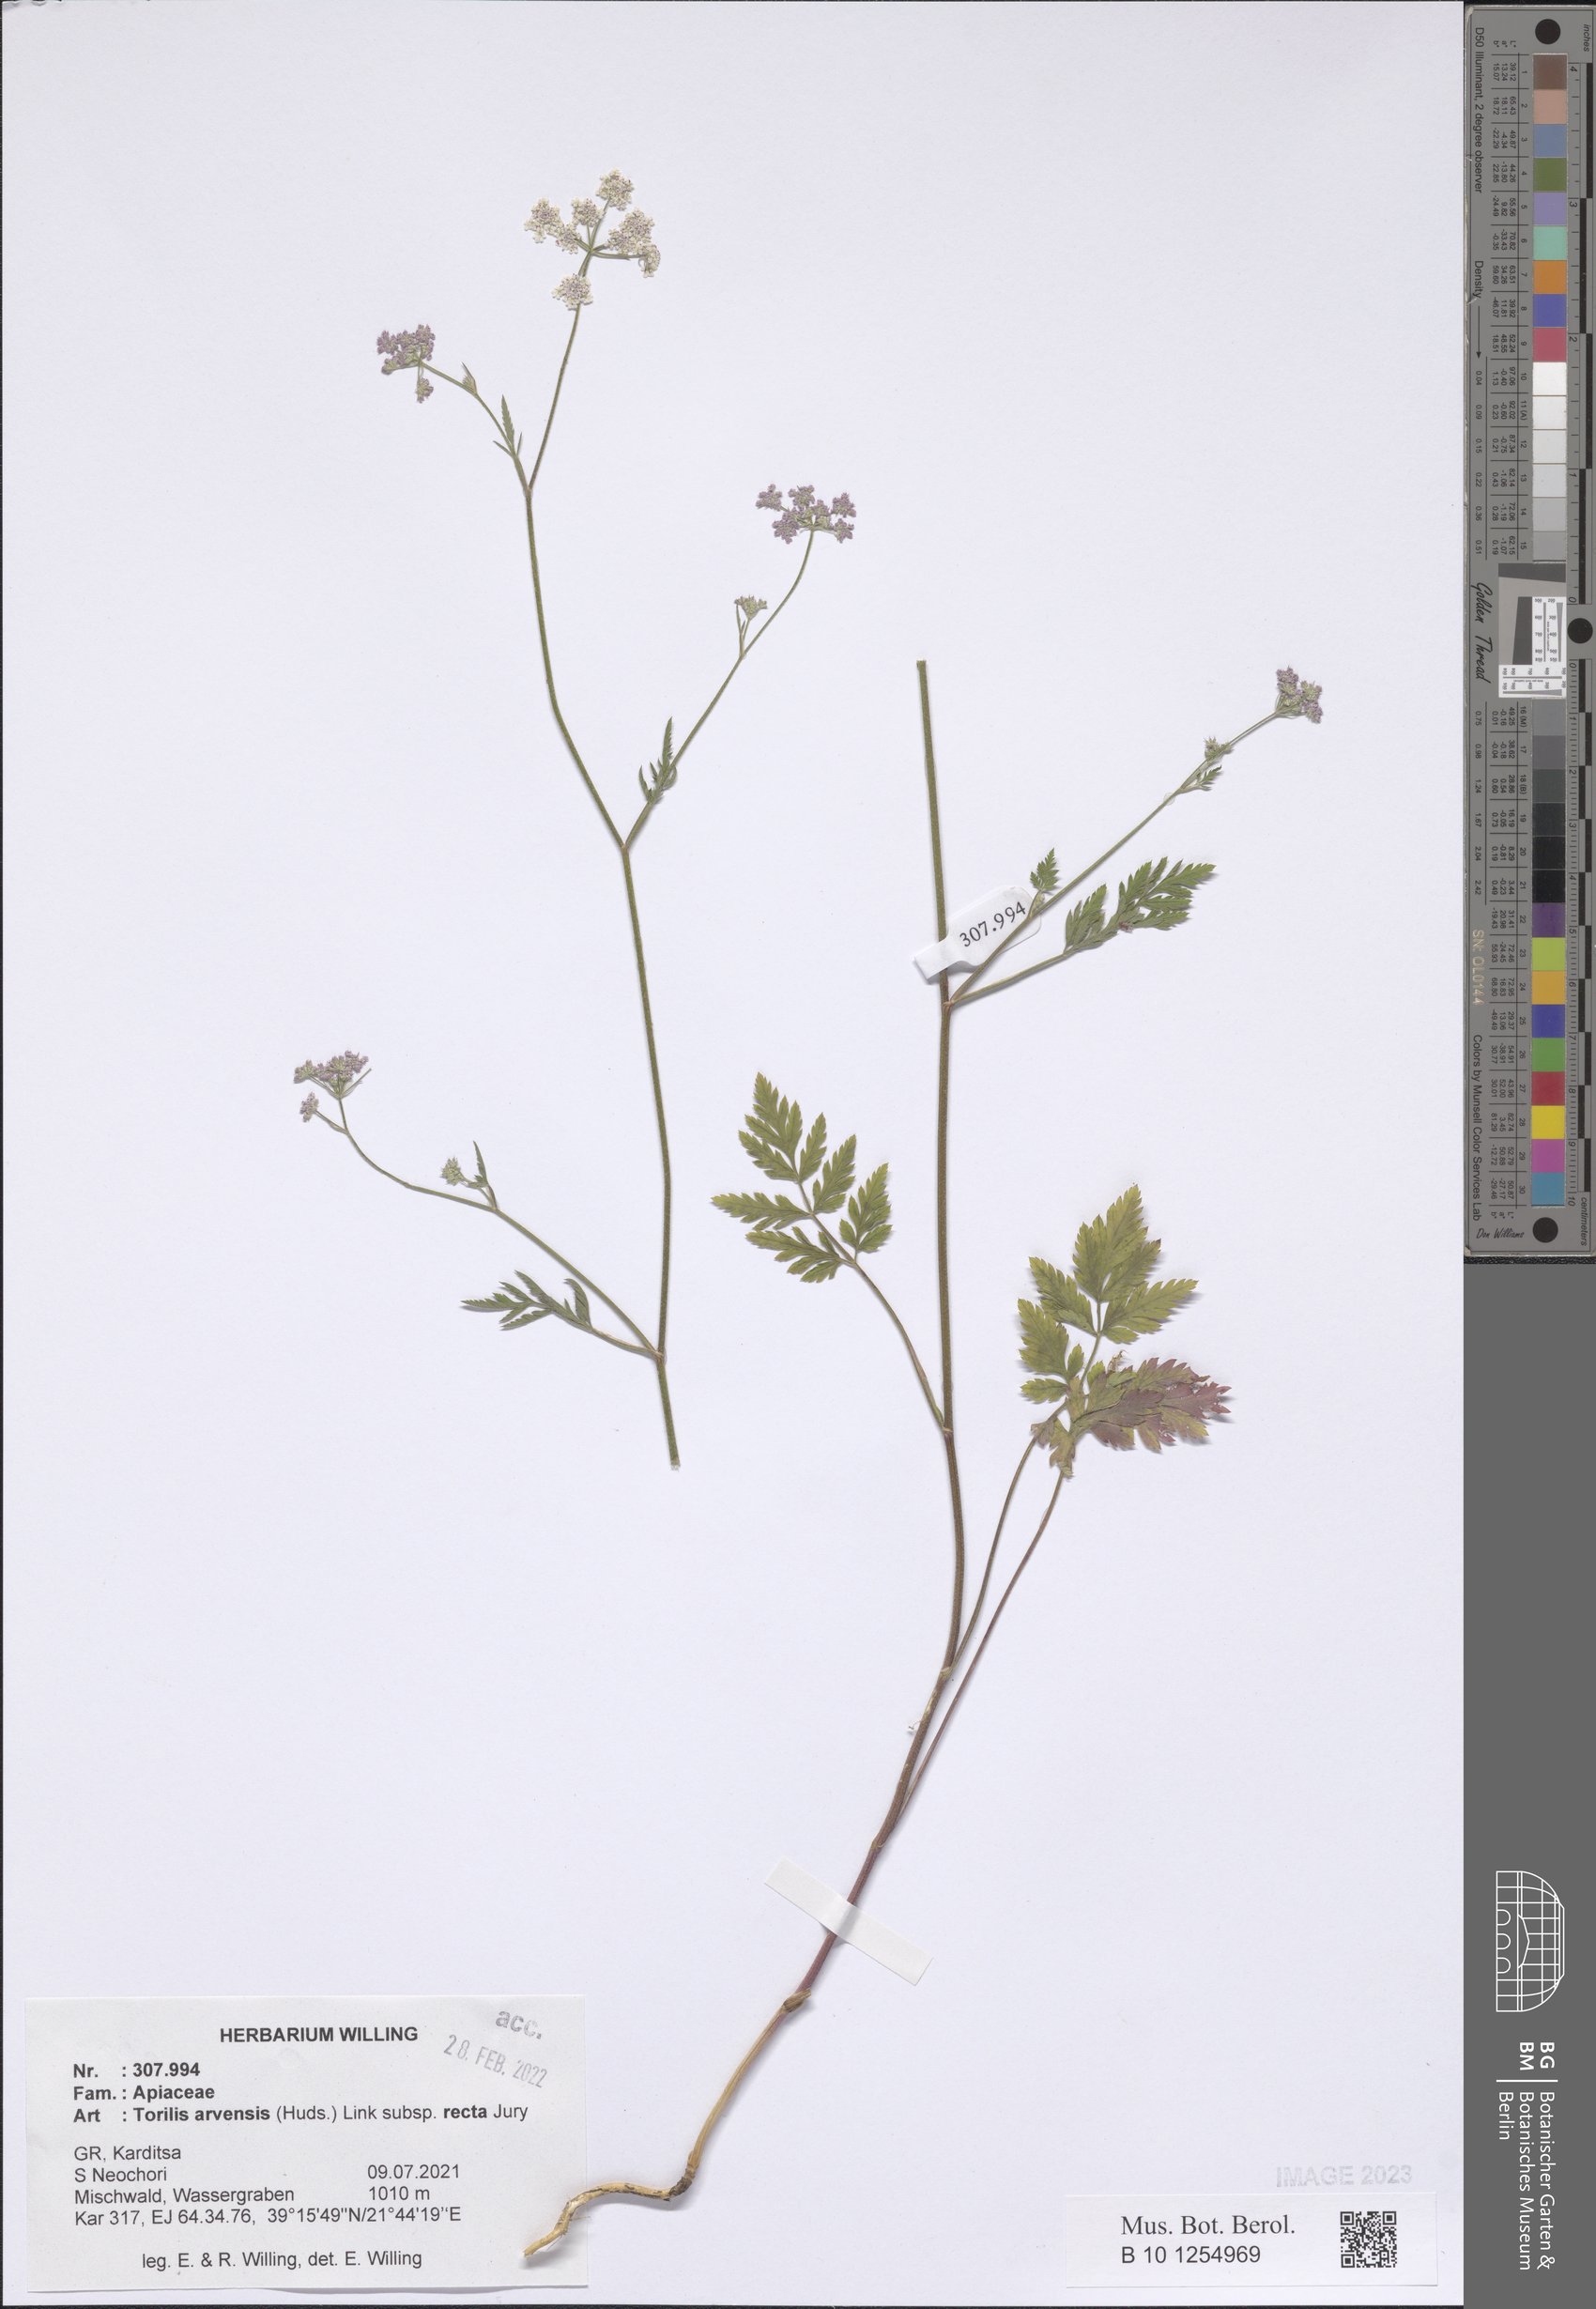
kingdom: Plantae
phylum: Tracheophyta
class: Magnoliopsida
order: Apiales
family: Apiaceae
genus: Torilis
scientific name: Torilis arvensis
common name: Spreading hedge-parsley
